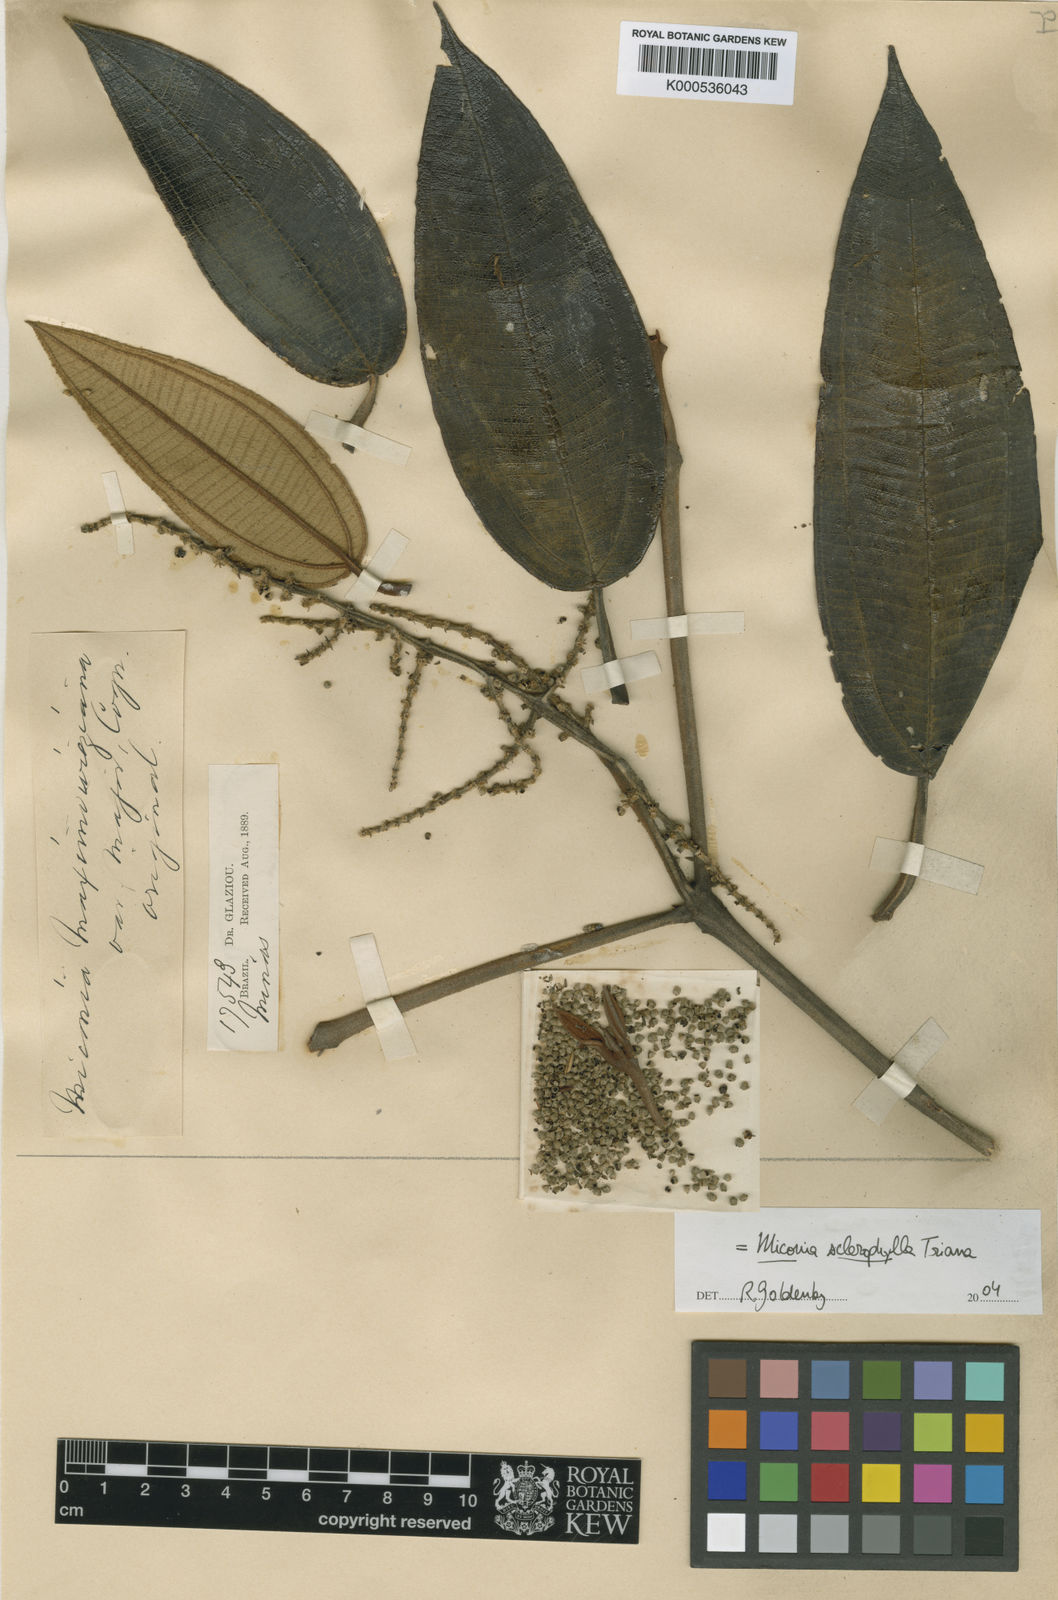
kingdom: Plantae
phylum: Tracheophyta
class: Magnoliopsida
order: Myrtales
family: Melastomataceae
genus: Miconia
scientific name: Miconia sclerophylla
